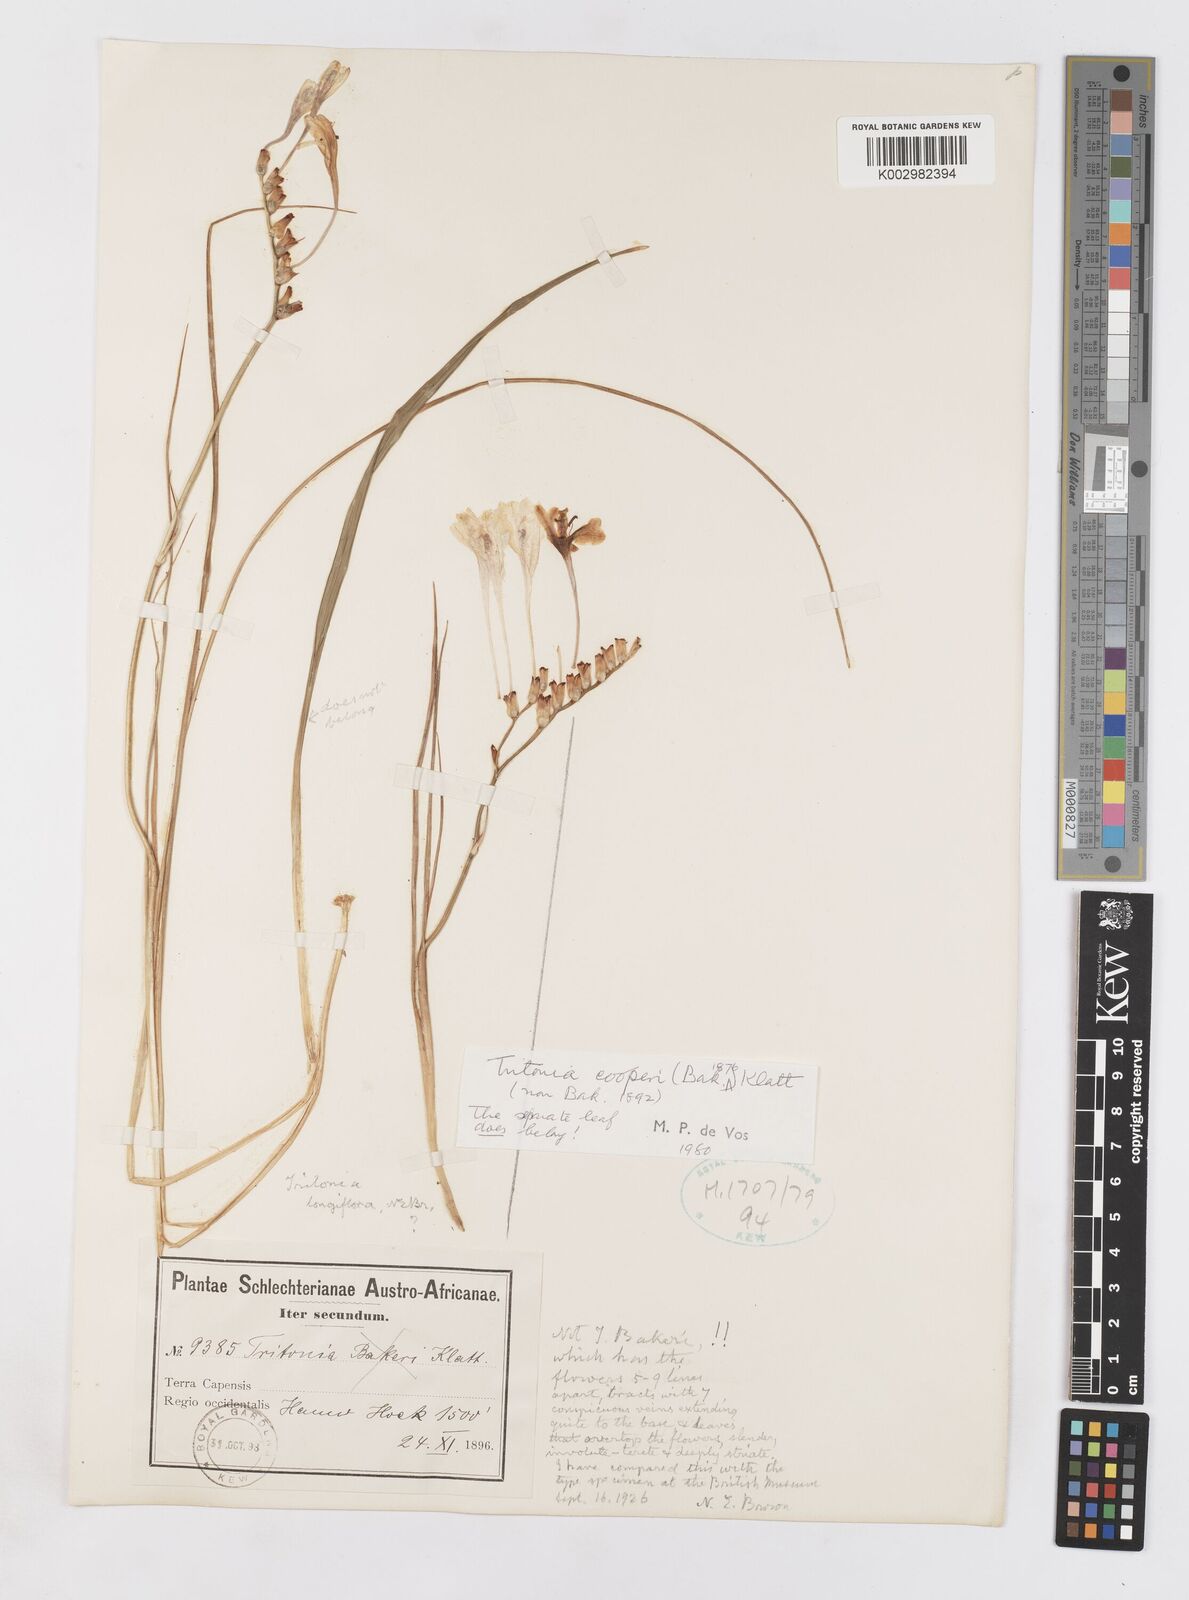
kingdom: Plantae
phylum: Tracheophyta
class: Liliopsida
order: Asparagales
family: Iridaceae
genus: Tritonia
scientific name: Tritonia cooperi
